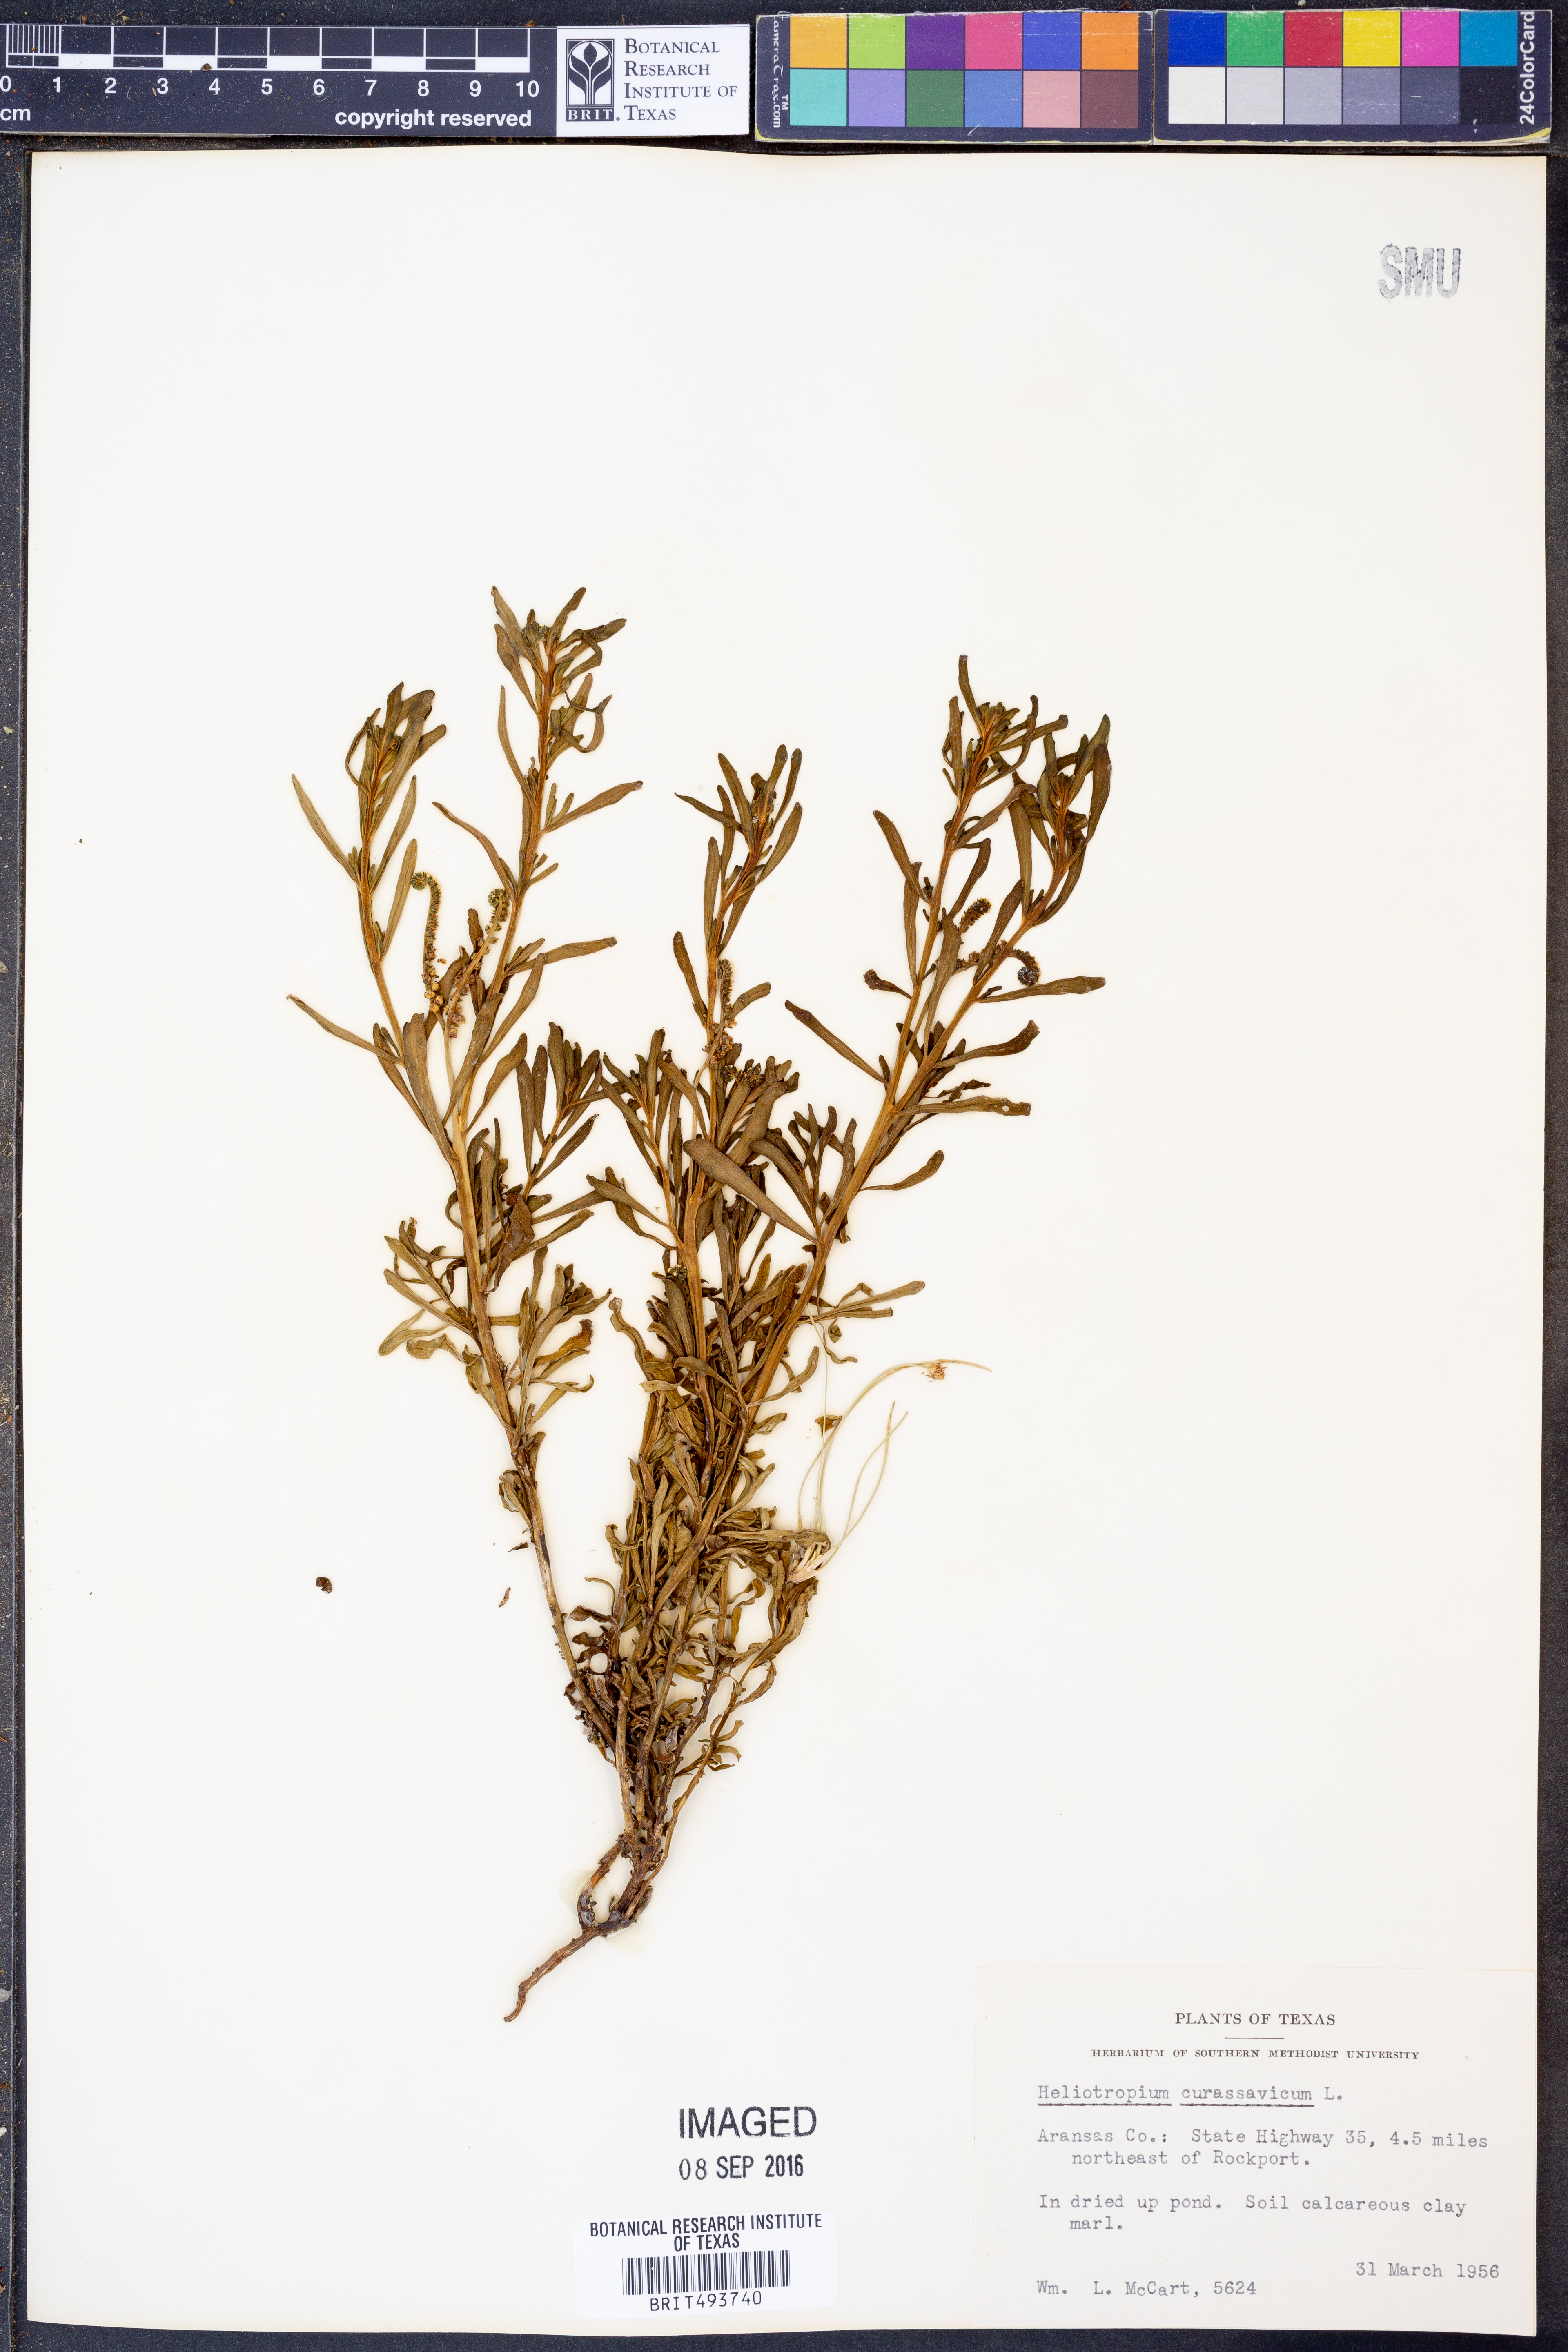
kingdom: Plantae
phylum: Tracheophyta
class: Magnoliopsida
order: Boraginales
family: Heliotropiaceae
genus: Heliotropium
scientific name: Heliotropium curassavicum
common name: Seaside heliotrope
